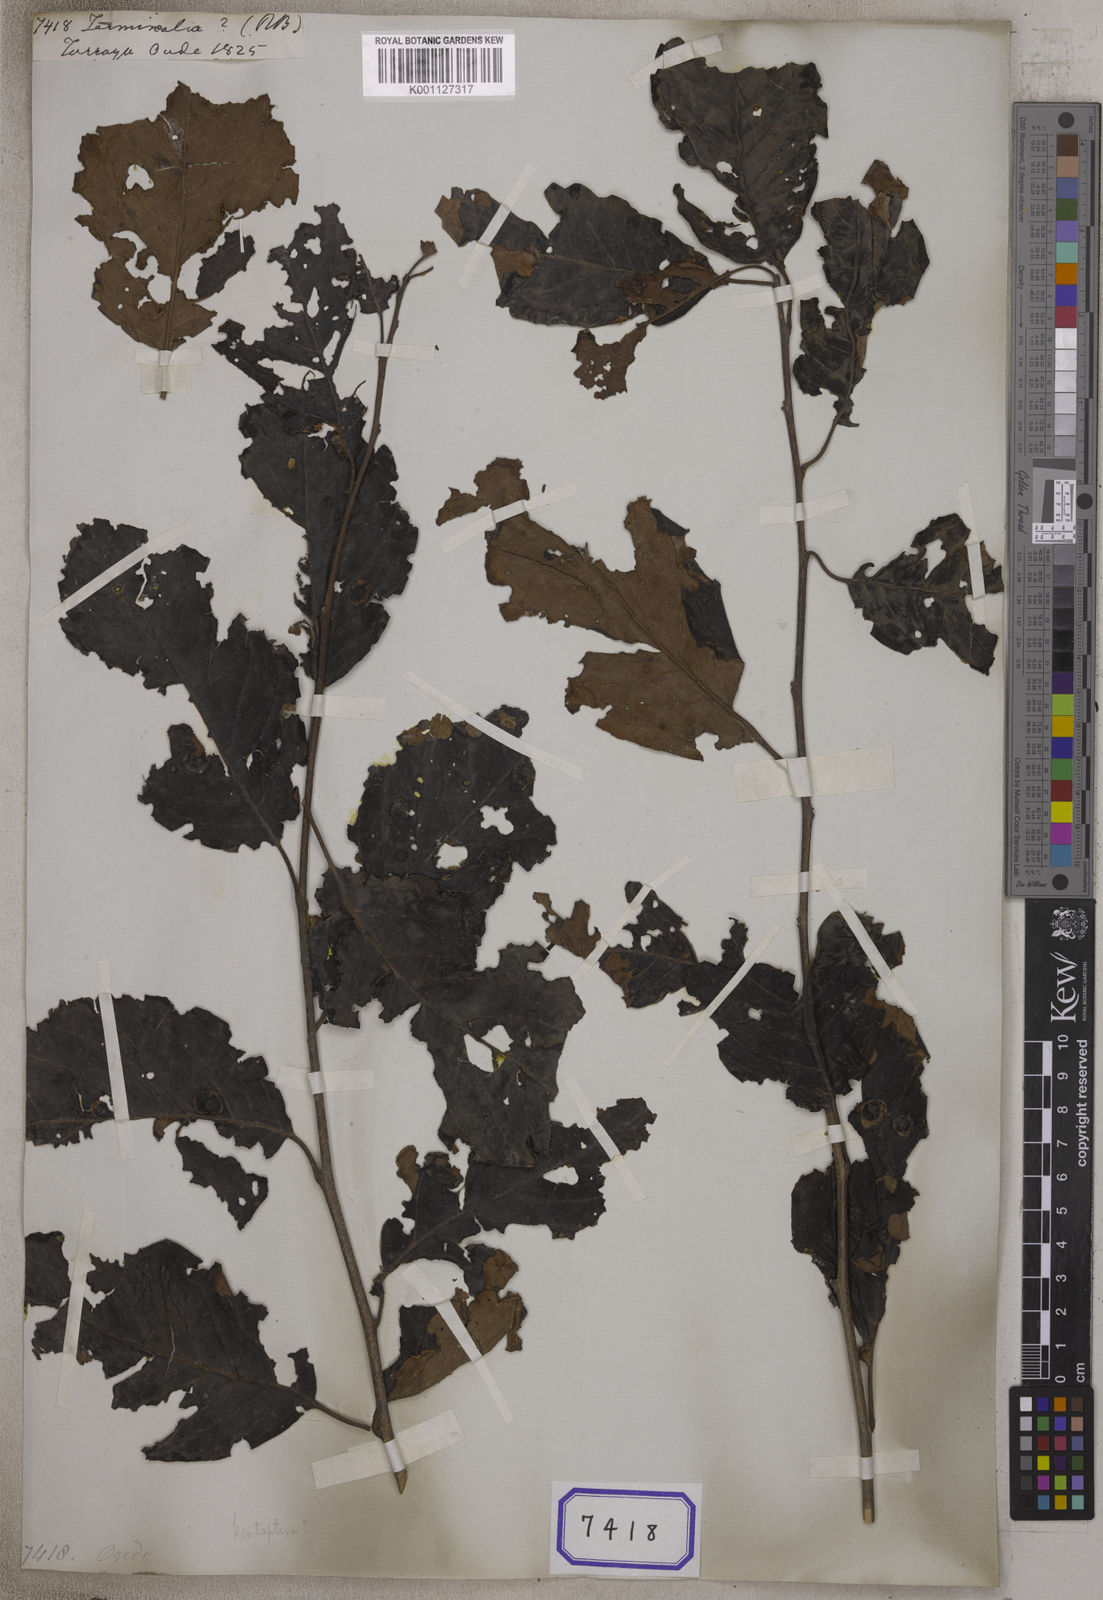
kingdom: Plantae
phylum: Tracheophyta
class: Magnoliopsida
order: Myrtales
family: Combretaceae
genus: Terminalia
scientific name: Terminalia
